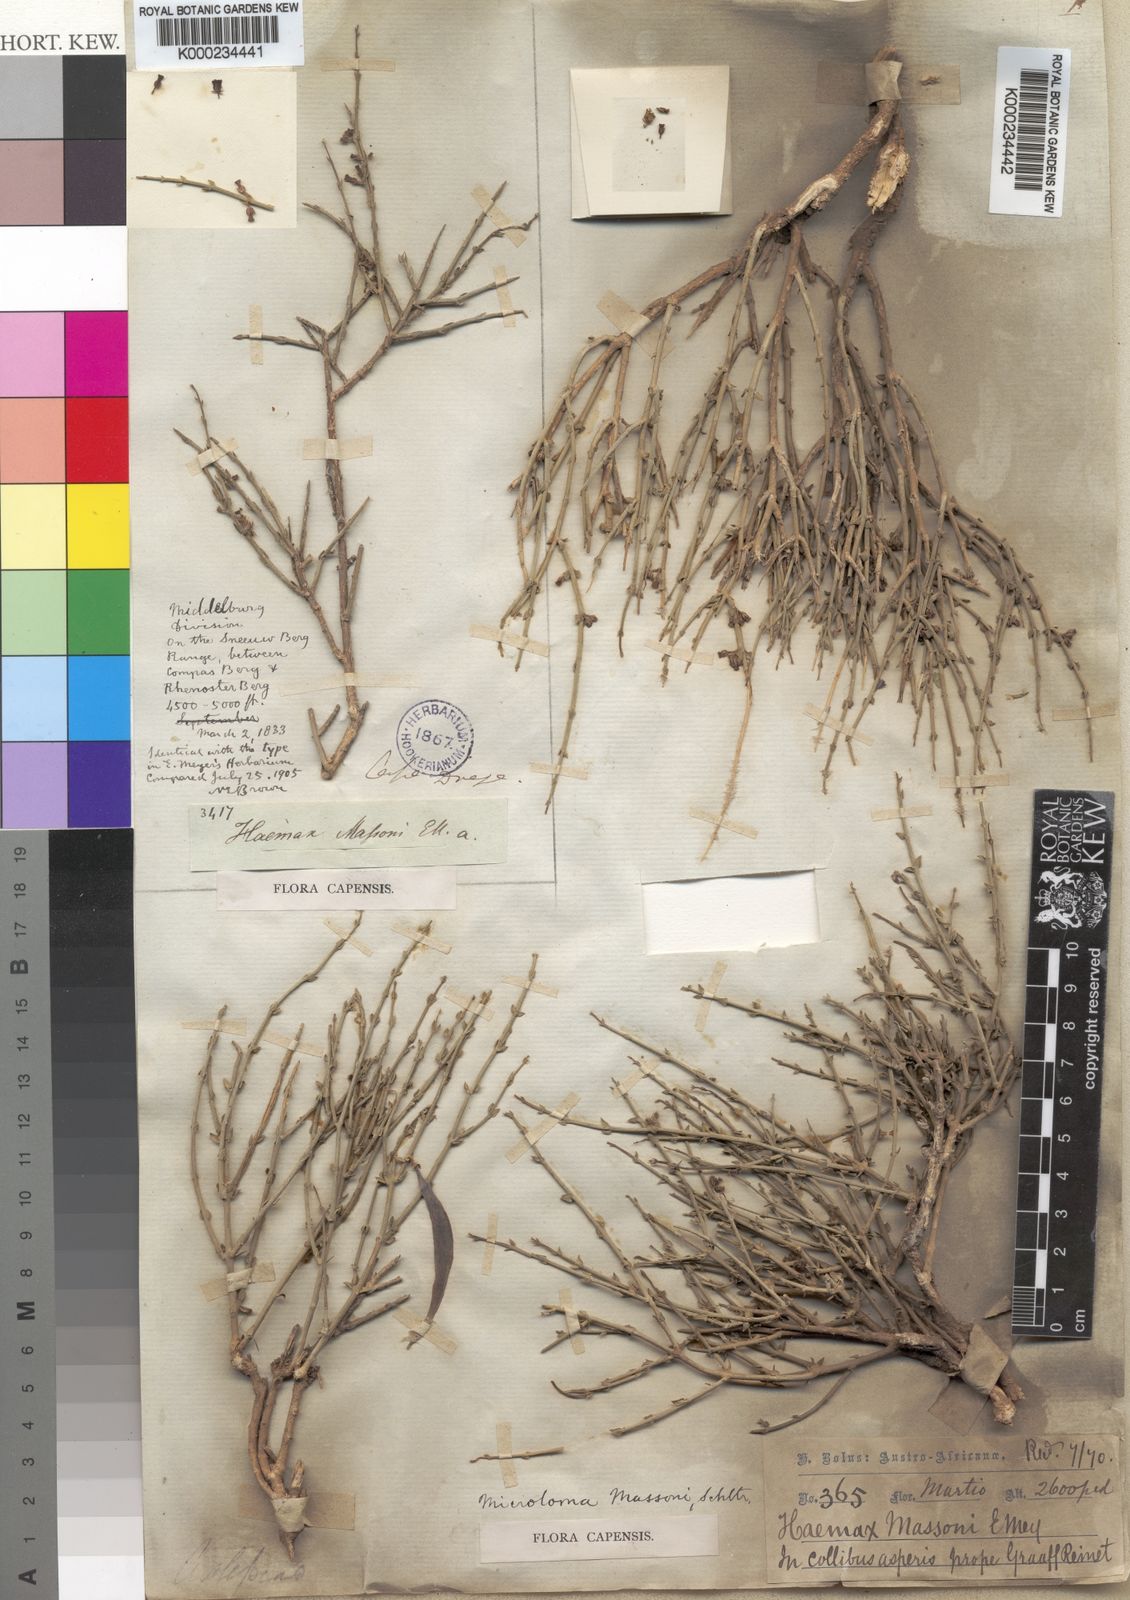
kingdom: Plantae
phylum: Tracheophyta
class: Magnoliopsida
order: Gentianales
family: Apocynaceae
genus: Microloma
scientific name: Microloma armatum
